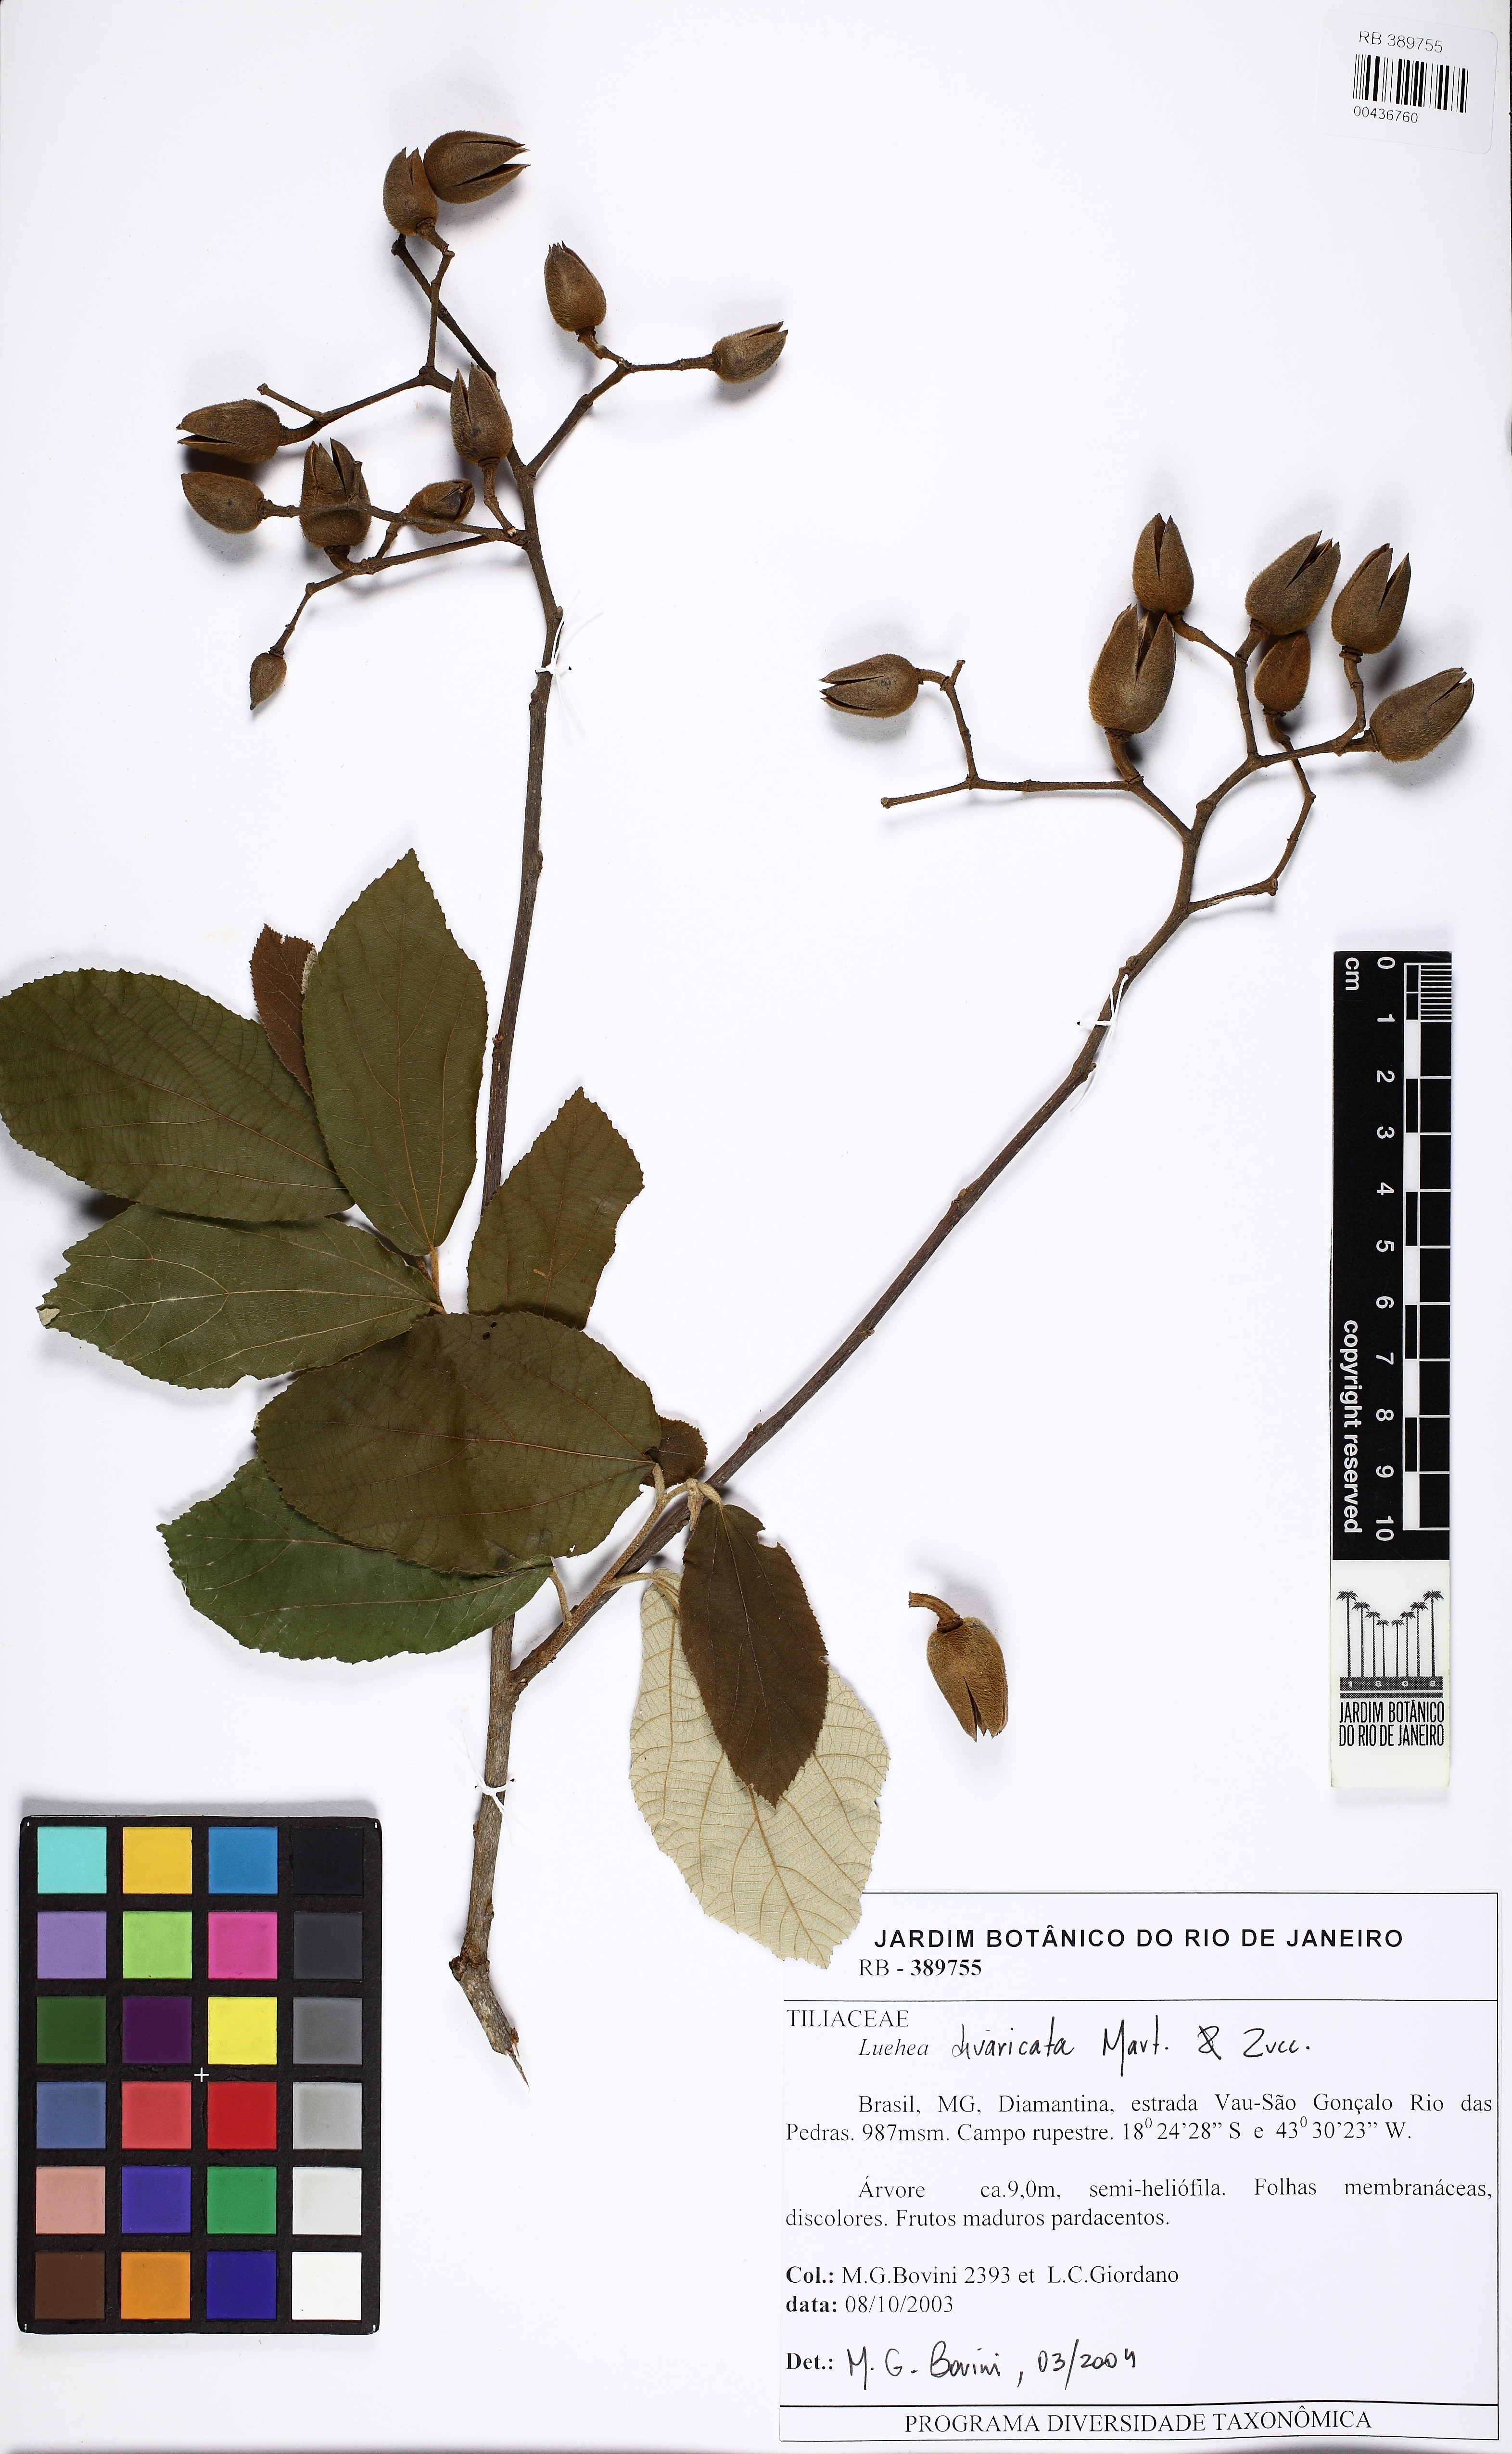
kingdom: Plantae
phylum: Tracheophyta
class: Magnoliopsida
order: Malvales
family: Malvaceae
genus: Luehea
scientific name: Luehea divaricata
